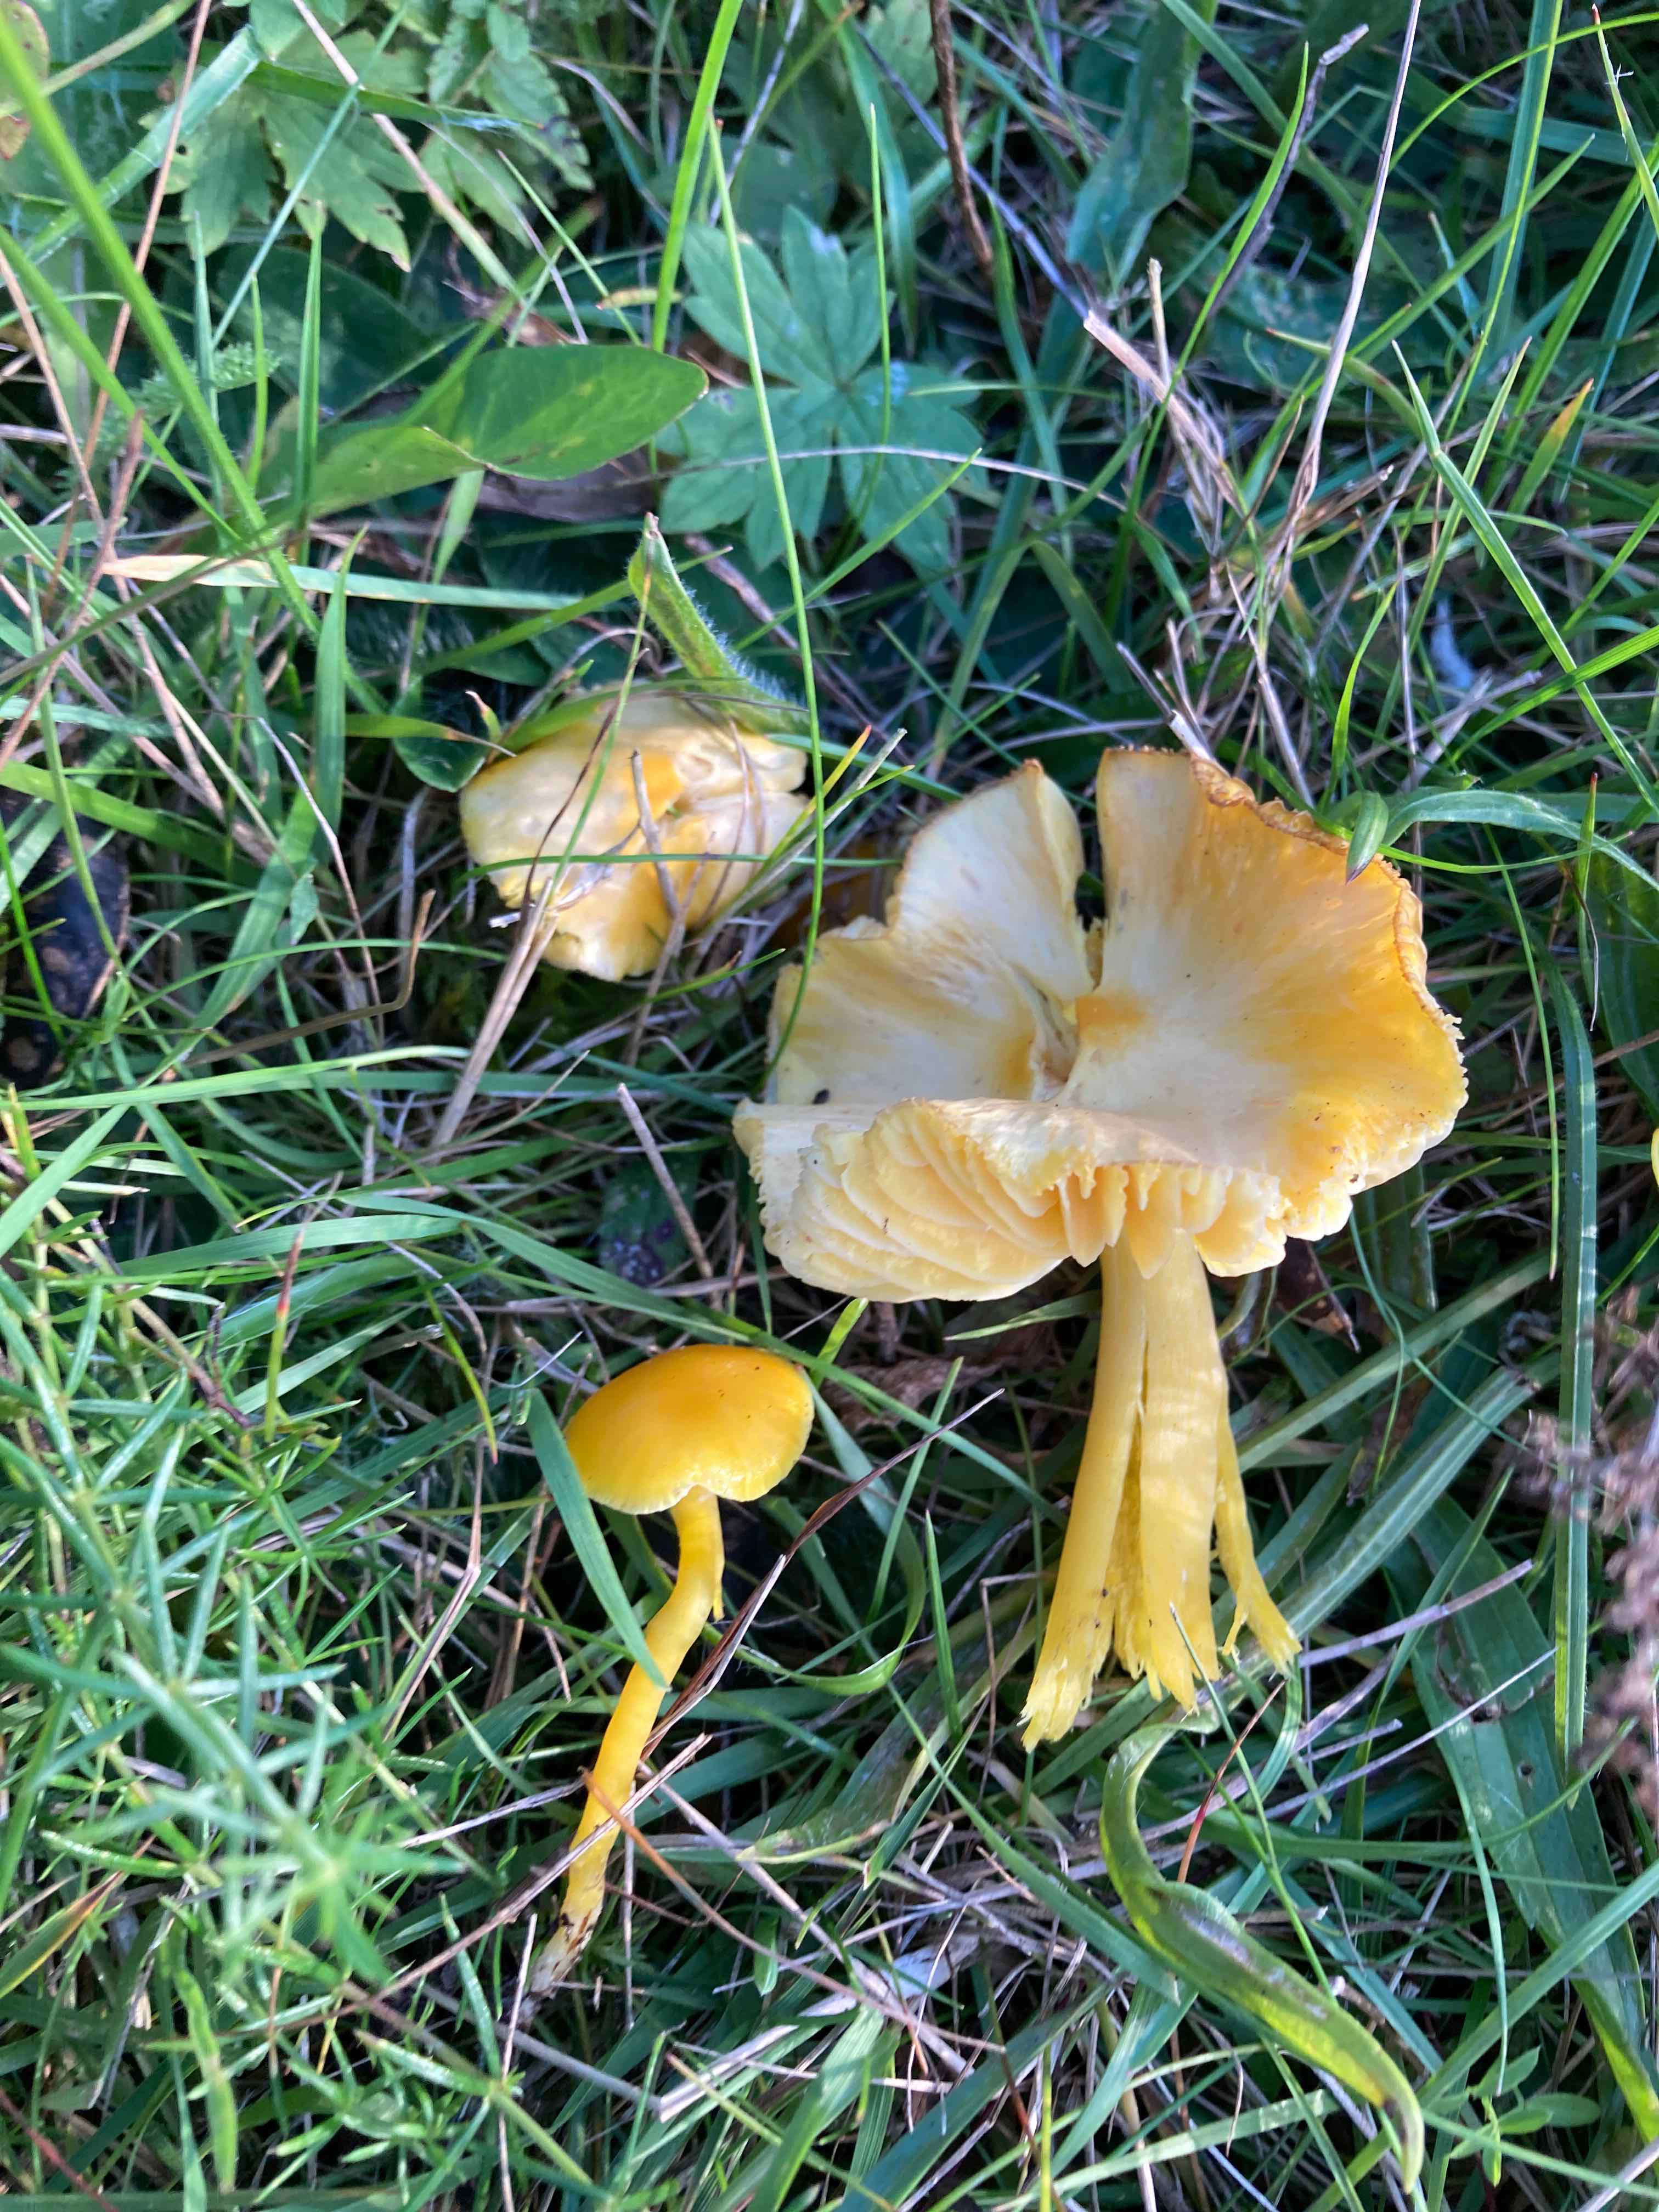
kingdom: Fungi
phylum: Basidiomycota
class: Agaricomycetes
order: Agaricales
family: Hygrophoraceae
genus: Hygrocybe
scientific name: Hygrocybe chlorophana
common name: gul vokshat
